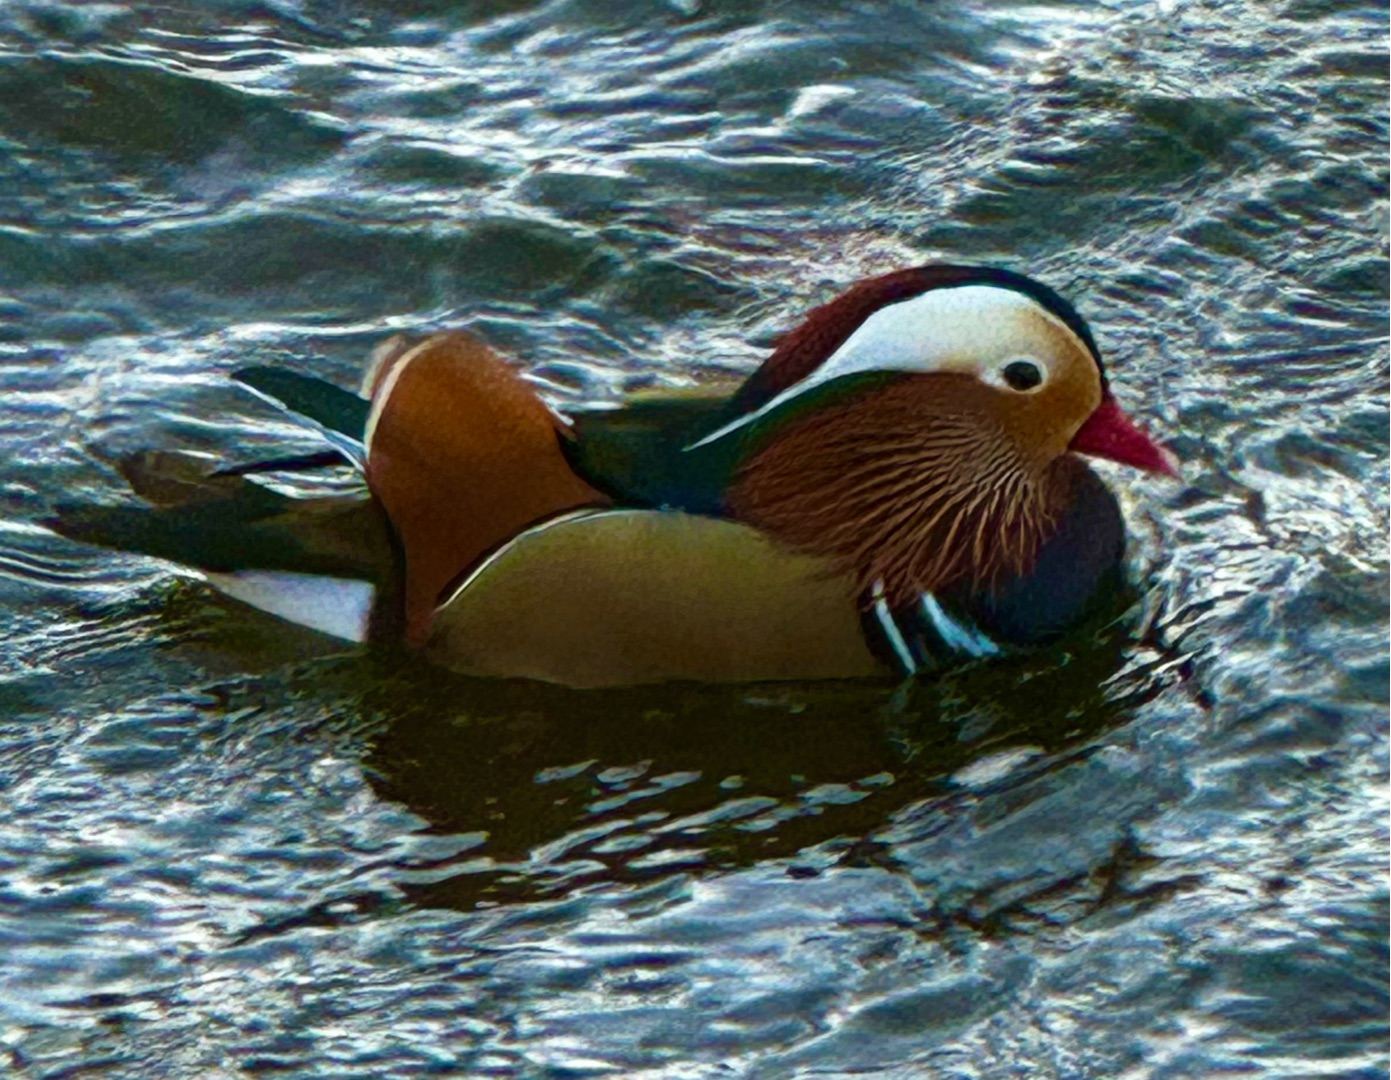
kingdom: Animalia
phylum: Chordata
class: Aves
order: Anseriformes
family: Anatidae
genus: Aix
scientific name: Aix galericulata
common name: Mandarinand
